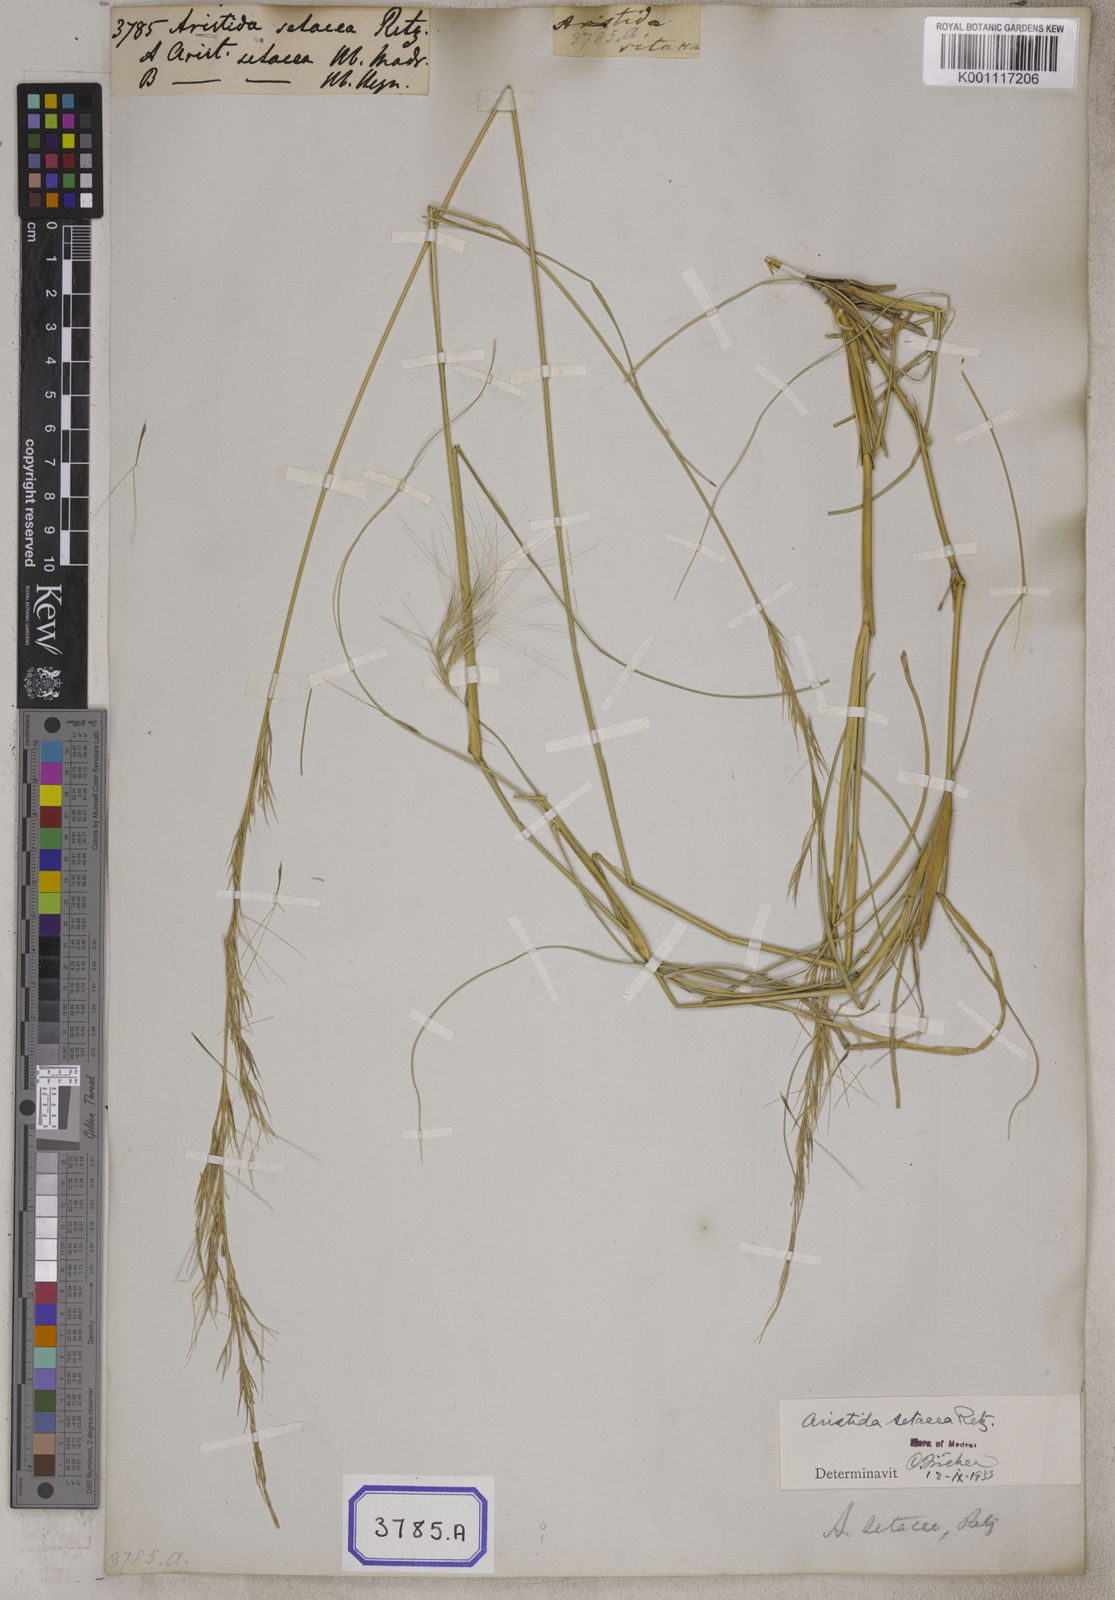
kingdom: Plantae
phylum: Tracheophyta
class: Liliopsida
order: Poales
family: Poaceae
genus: Aristida
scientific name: Aristida setacea
